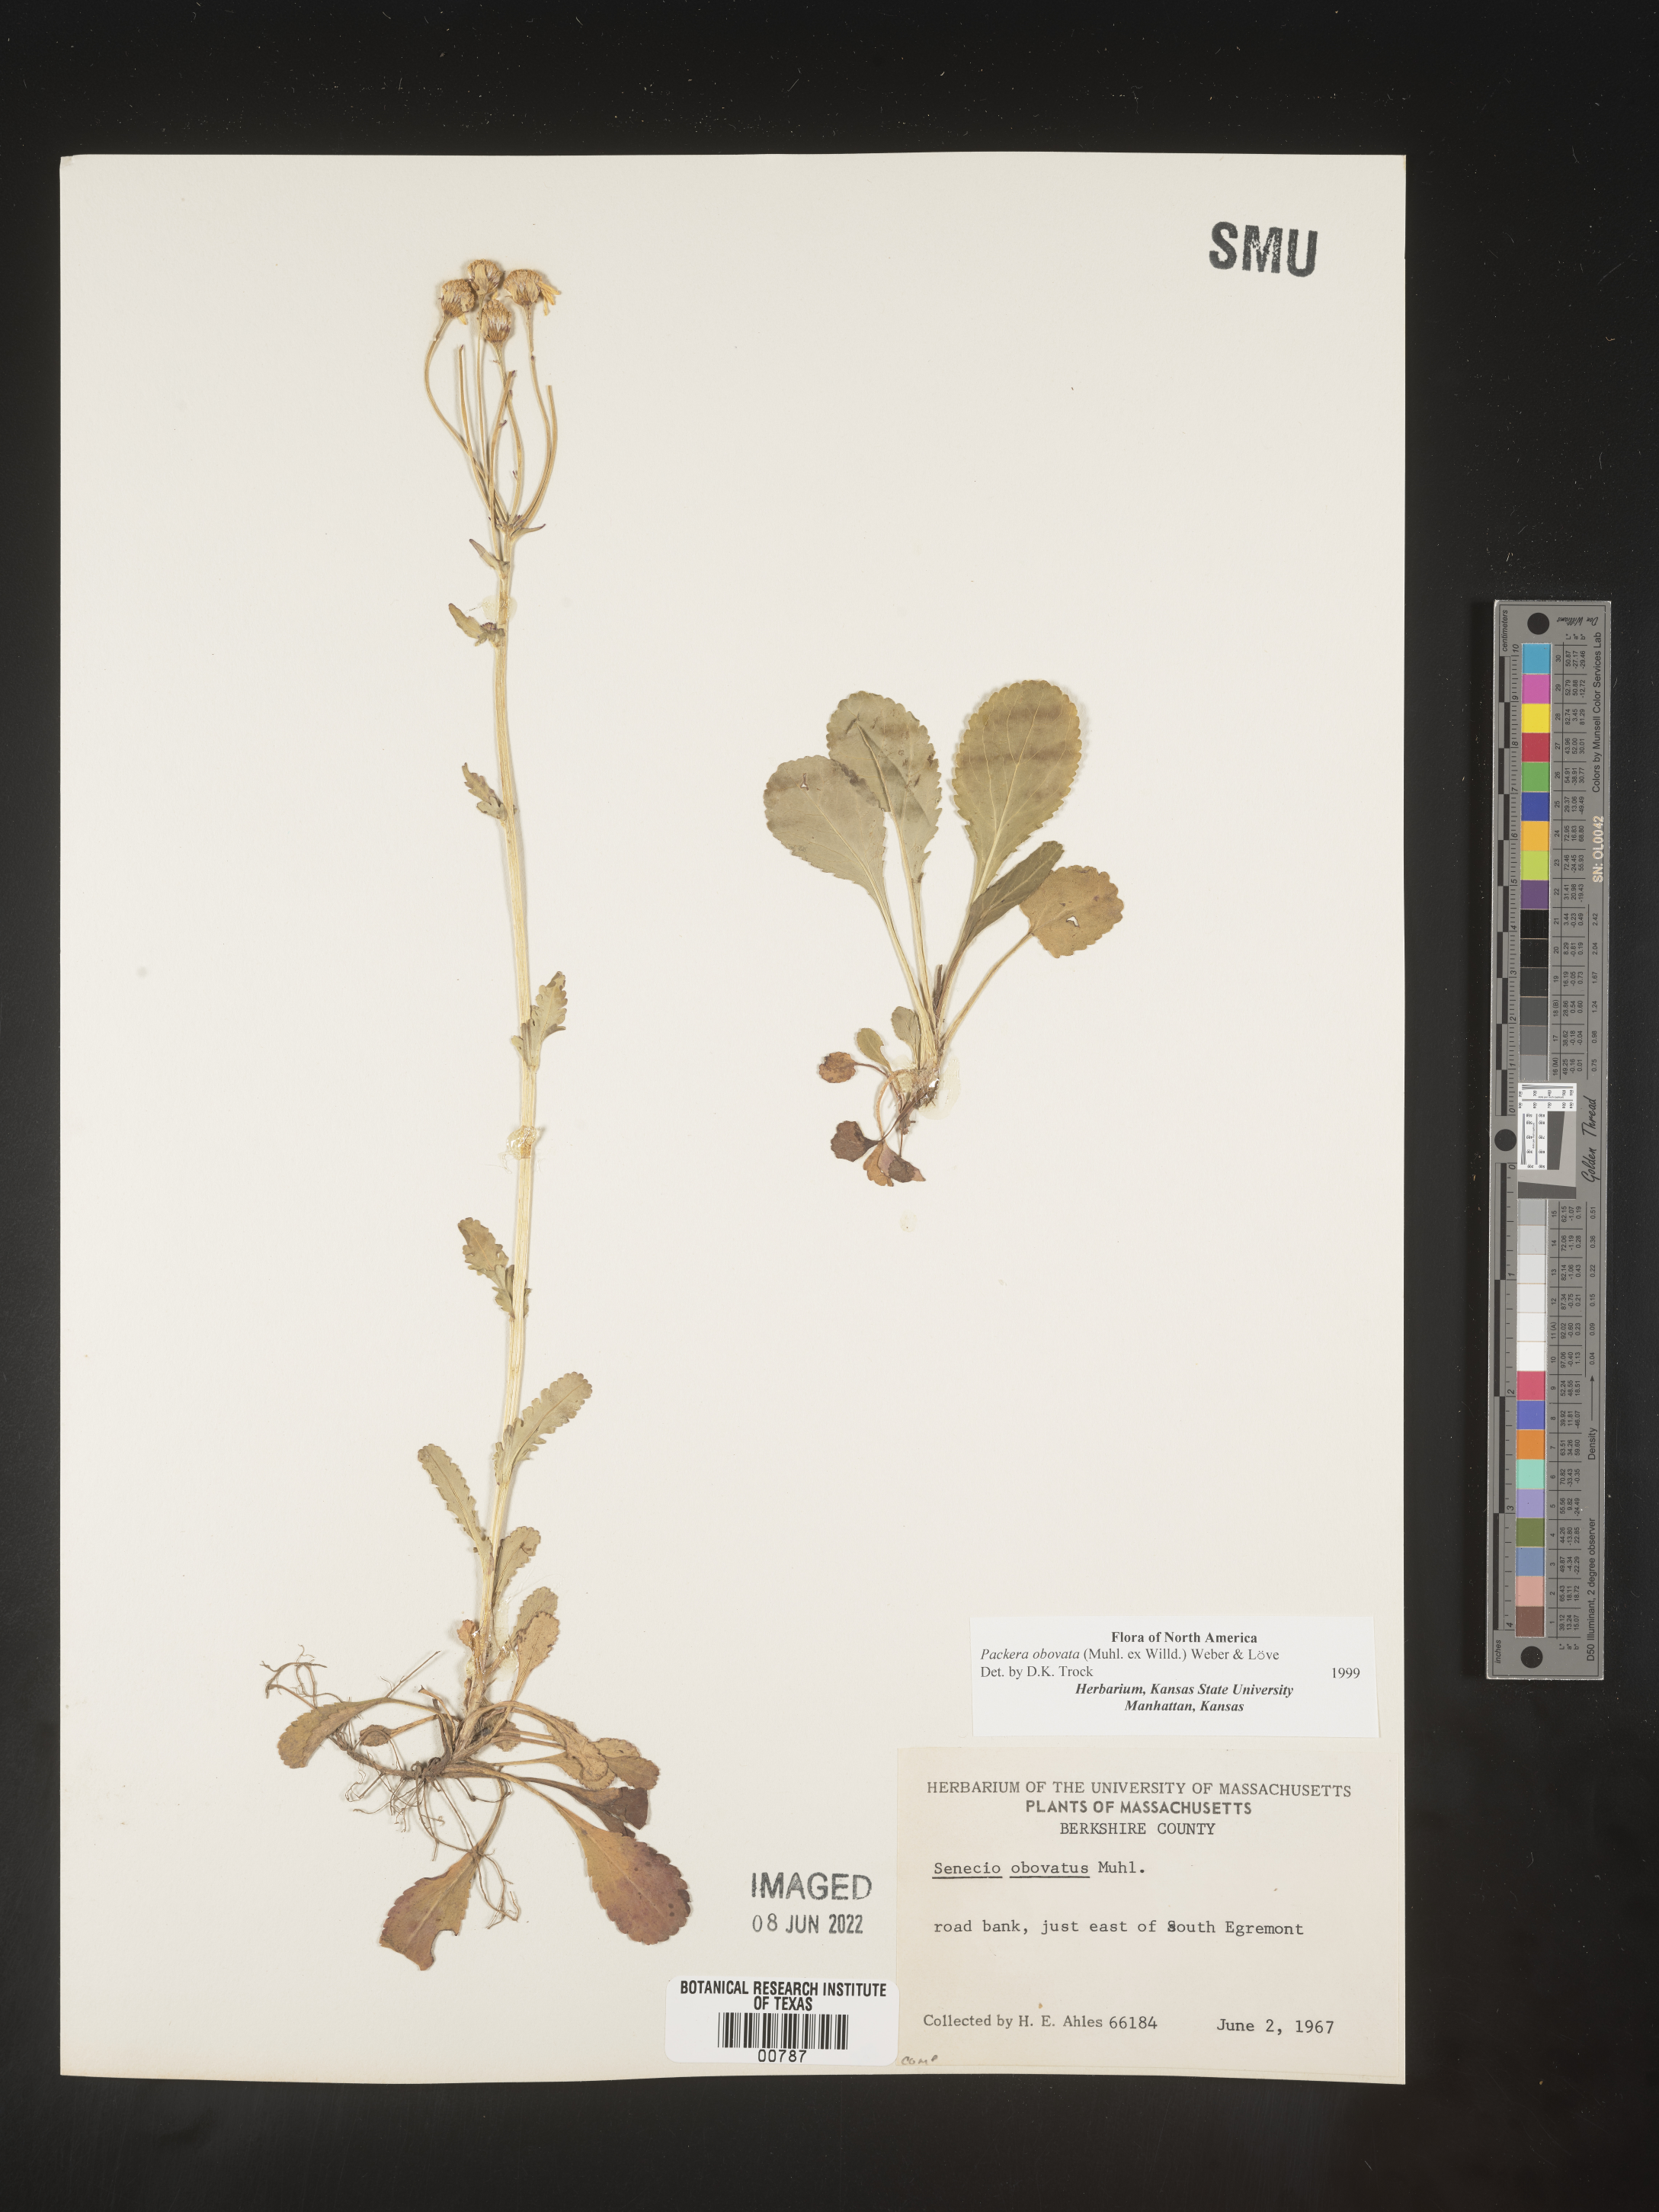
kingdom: Plantae
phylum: Tracheophyta
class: Magnoliopsida
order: Asterales
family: Asteraceae
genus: Packera
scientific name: Packera obovata
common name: Round-leaf ragwort
